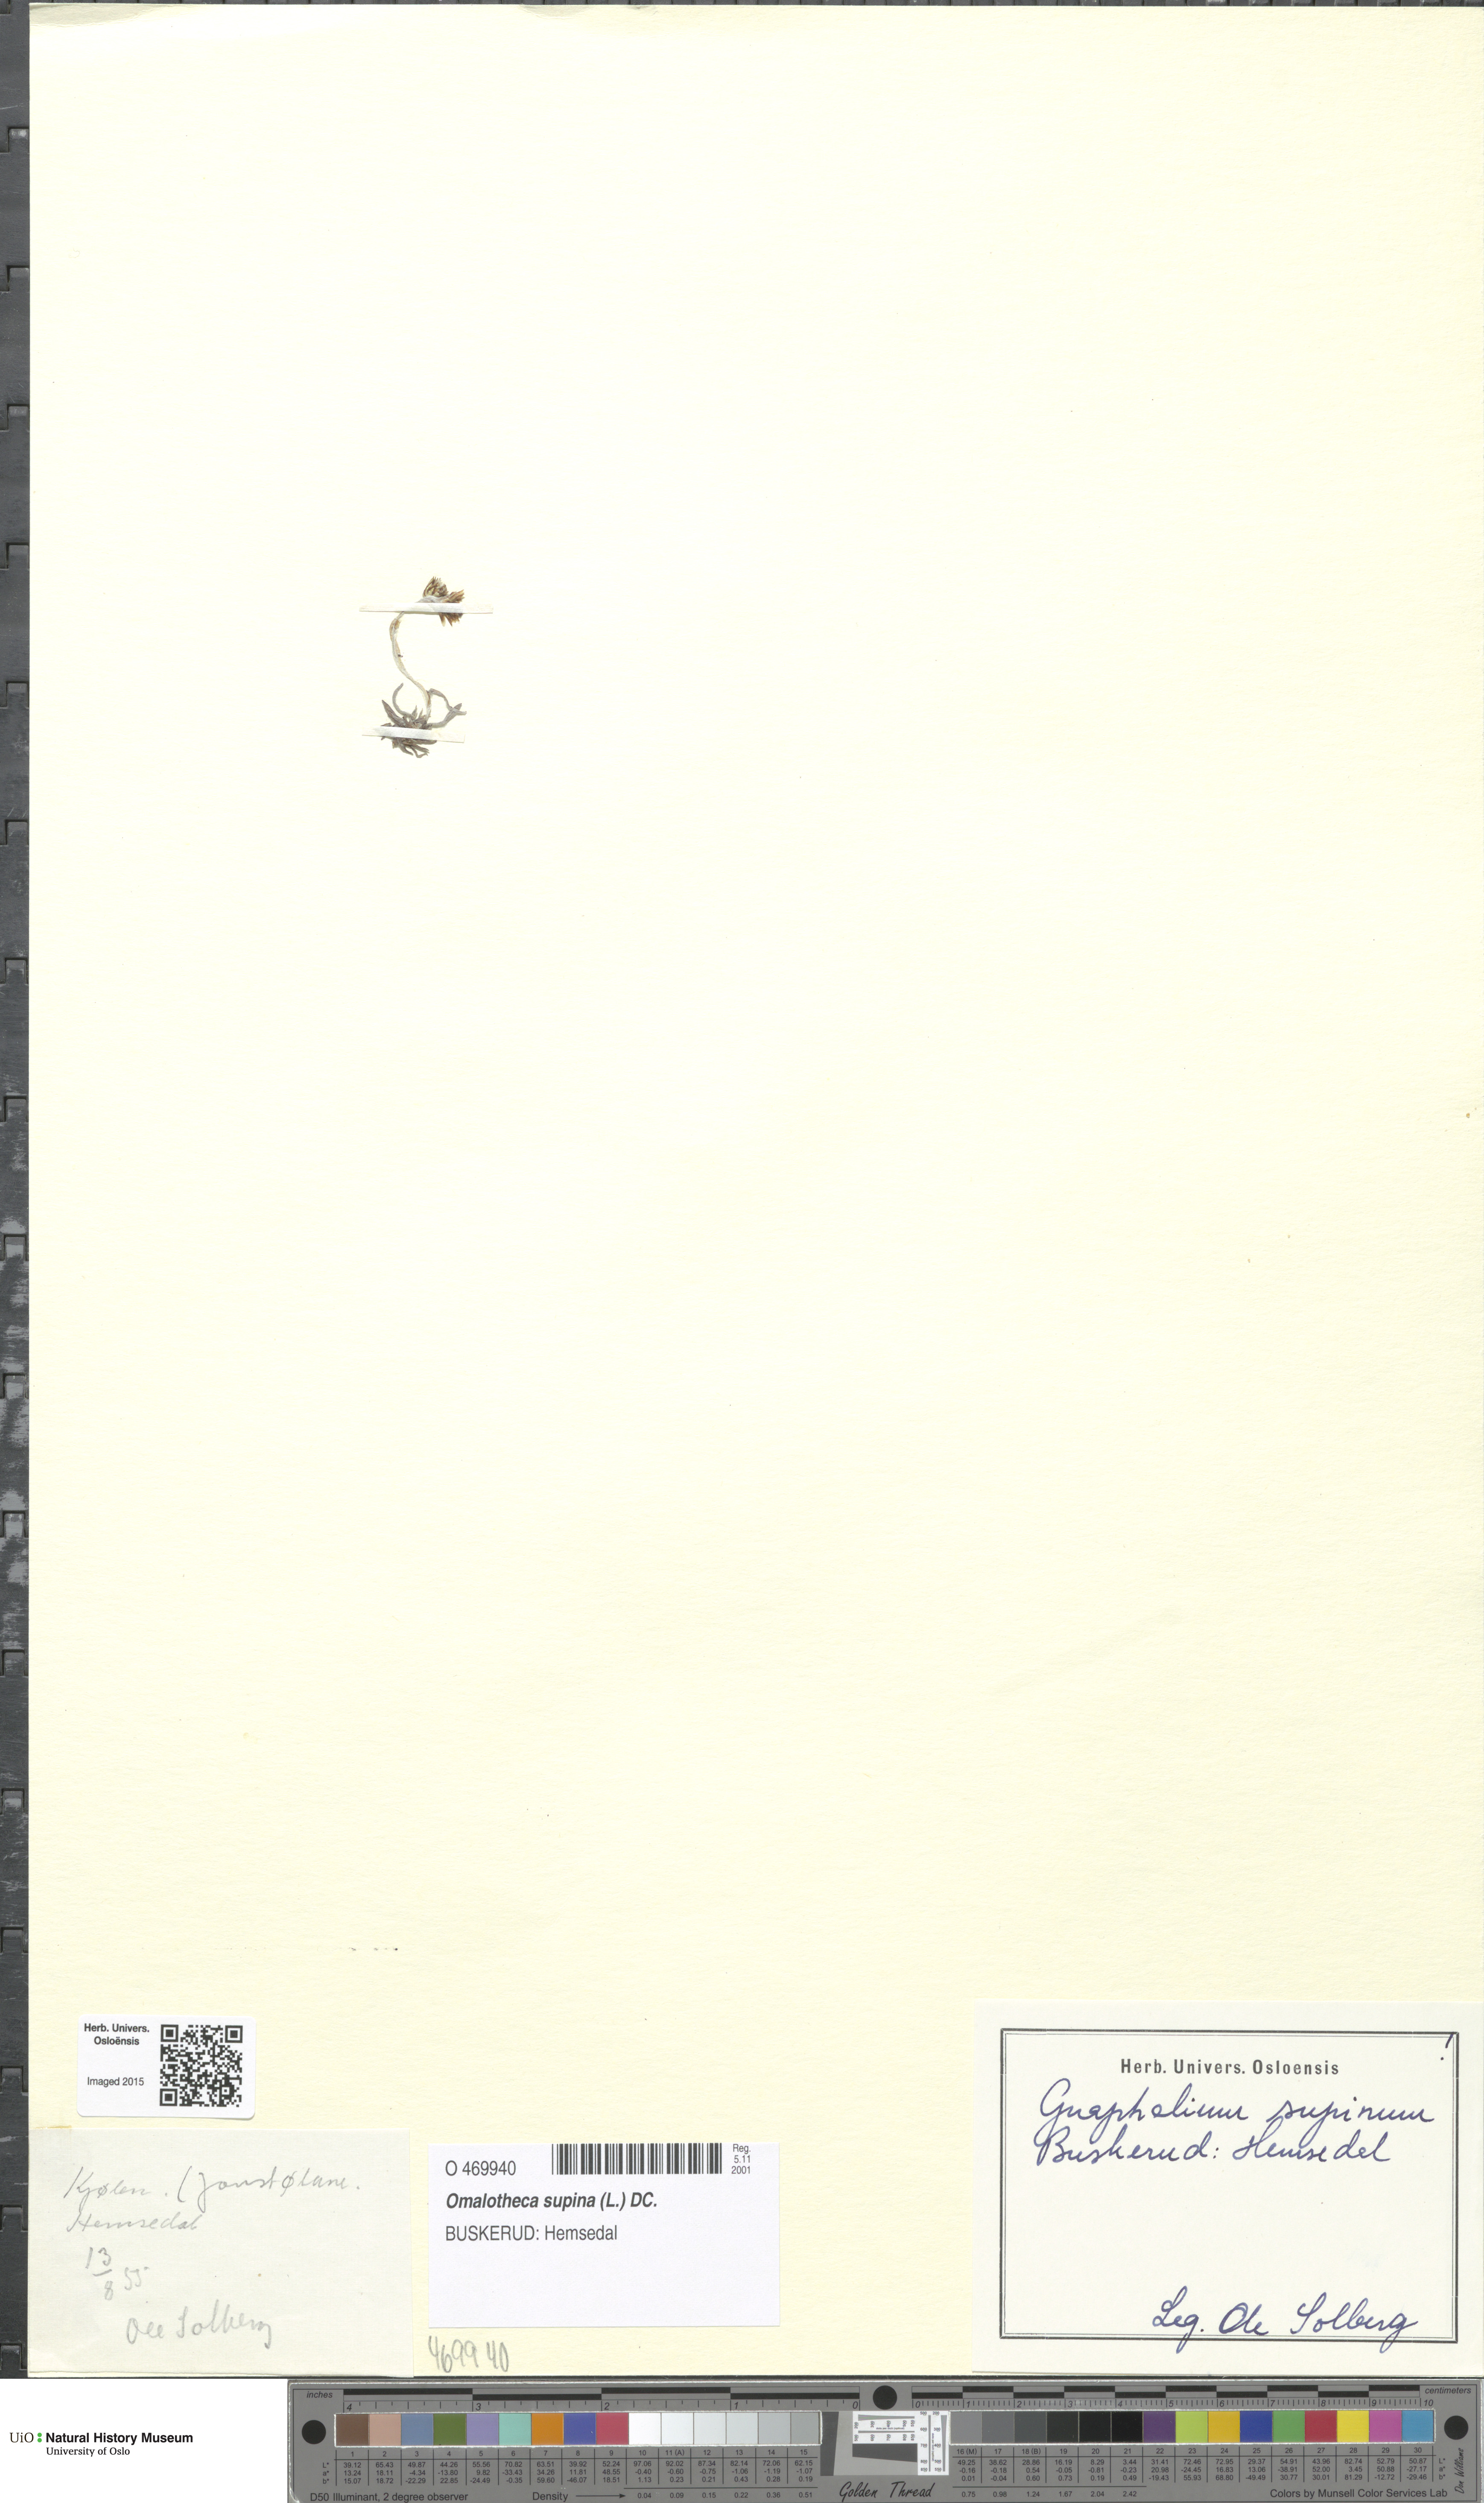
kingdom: Plantae
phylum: Tracheophyta
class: Magnoliopsida
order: Asterales
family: Asteraceae
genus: Omalotheca
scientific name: Omalotheca supina
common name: Alpine arctic-cudweed
